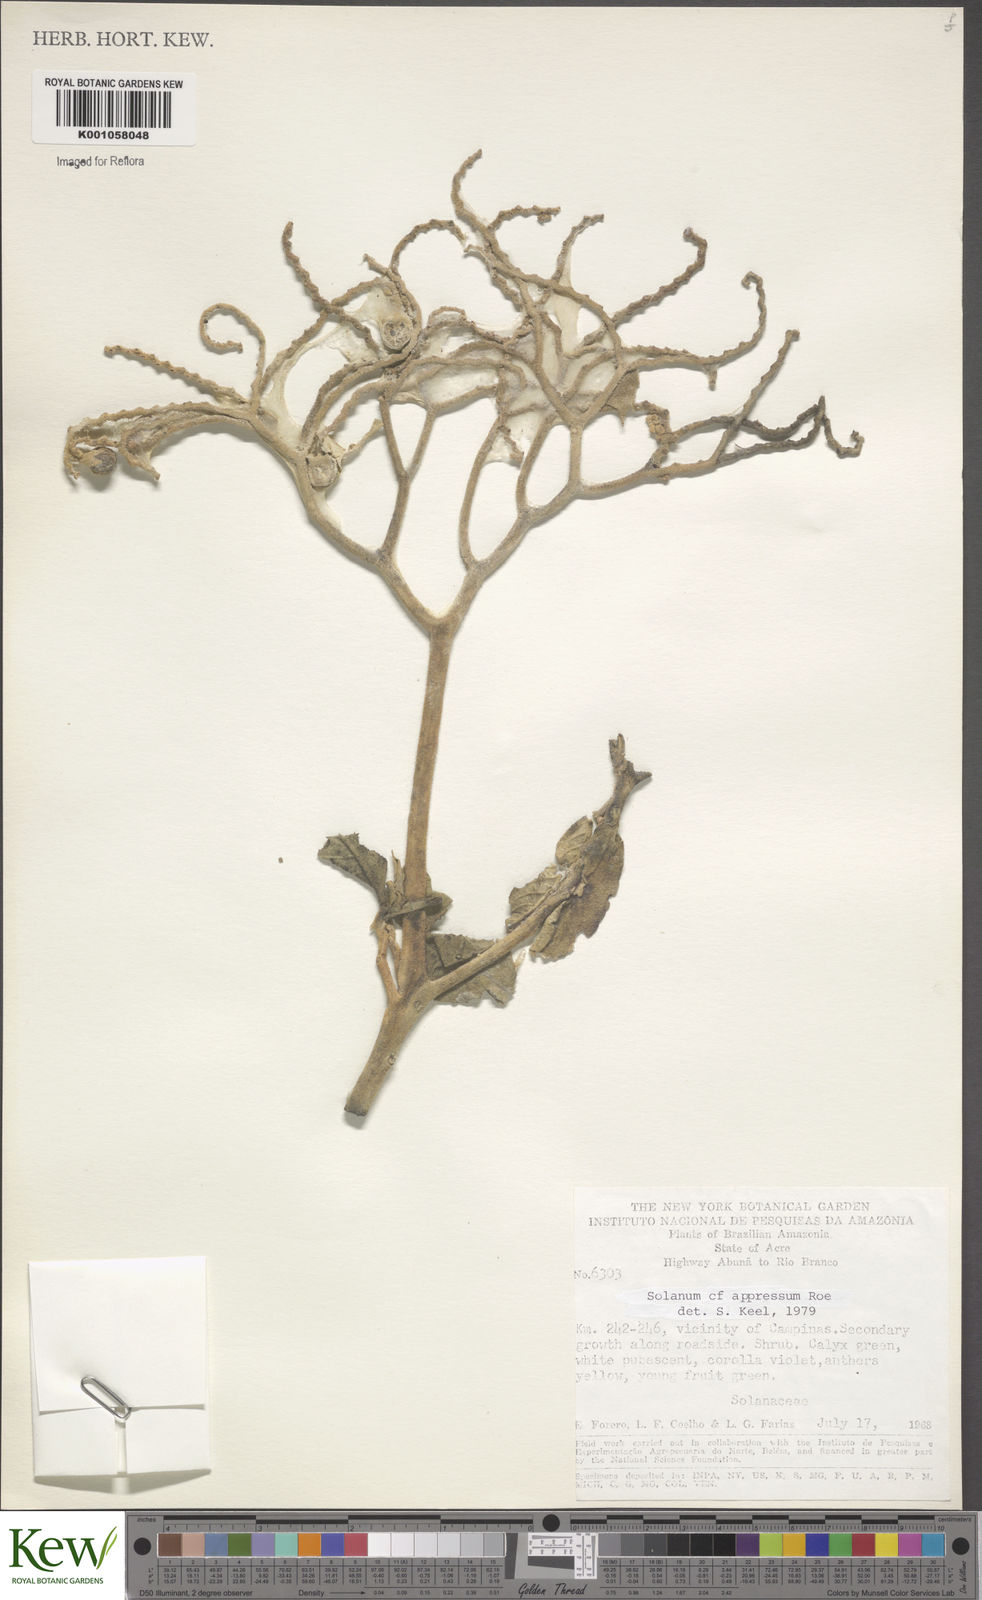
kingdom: Plantae
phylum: Tracheophyta
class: Magnoliopsida
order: Solanales
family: Solanaceae
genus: Solanum
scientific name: Solanum appressum
